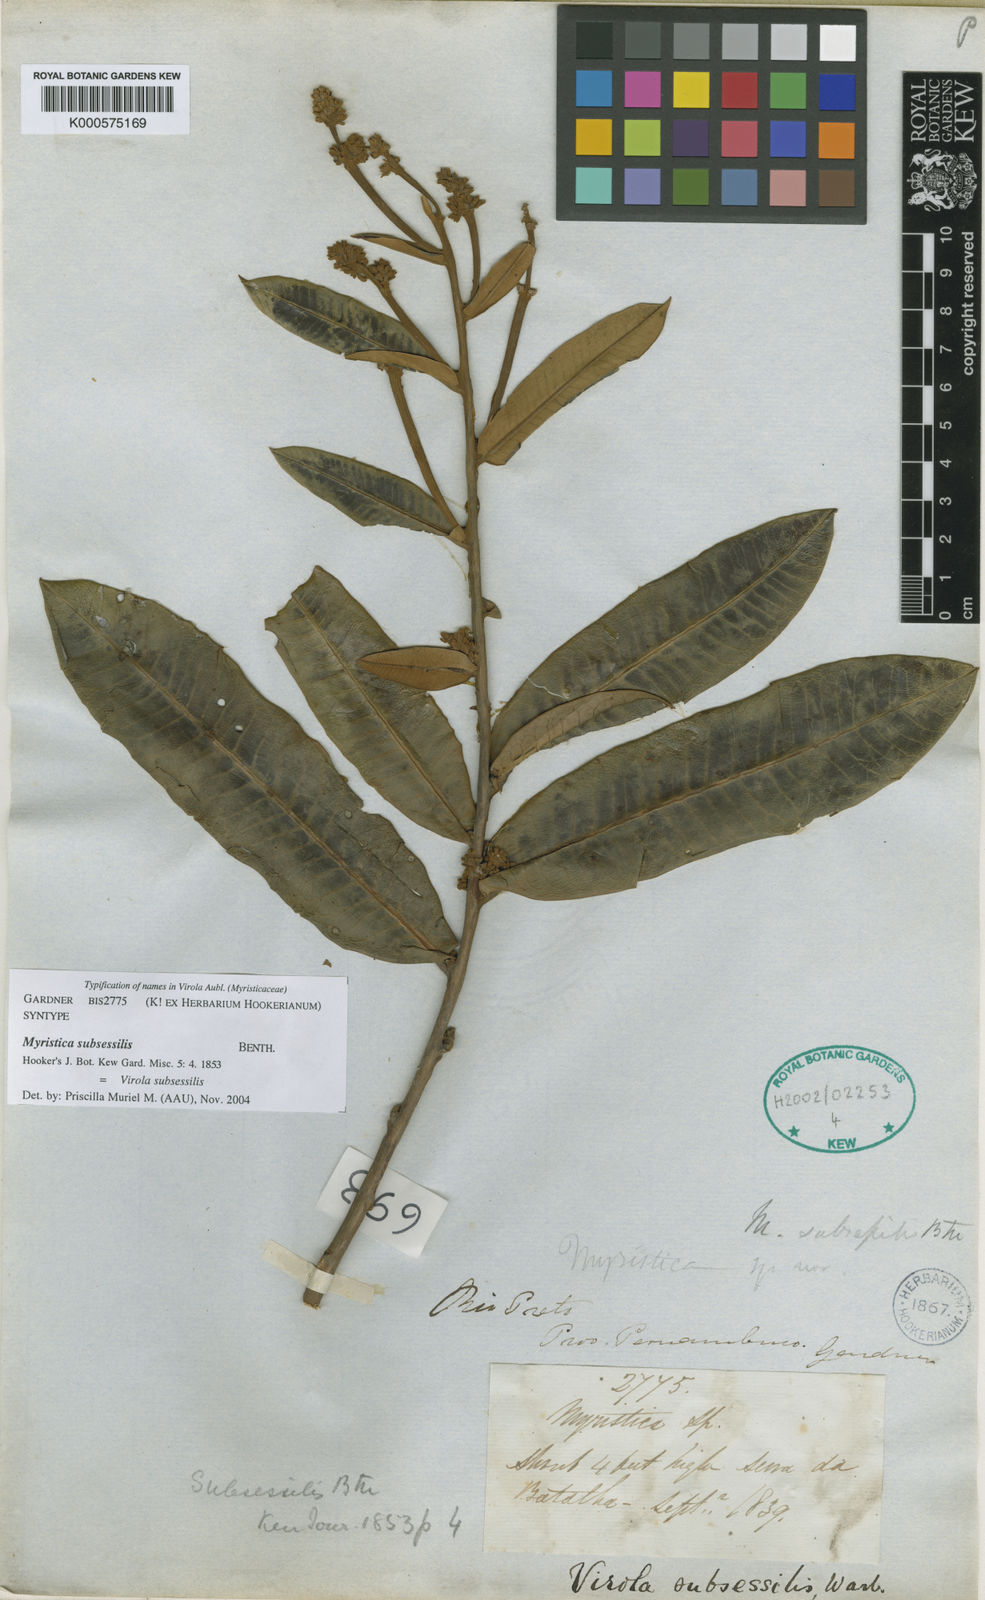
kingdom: Plantae
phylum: Tracheophyta
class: Magnoliopsida
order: Magnoliales
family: Myristicaceae
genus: Virola
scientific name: Virola subsessilis
